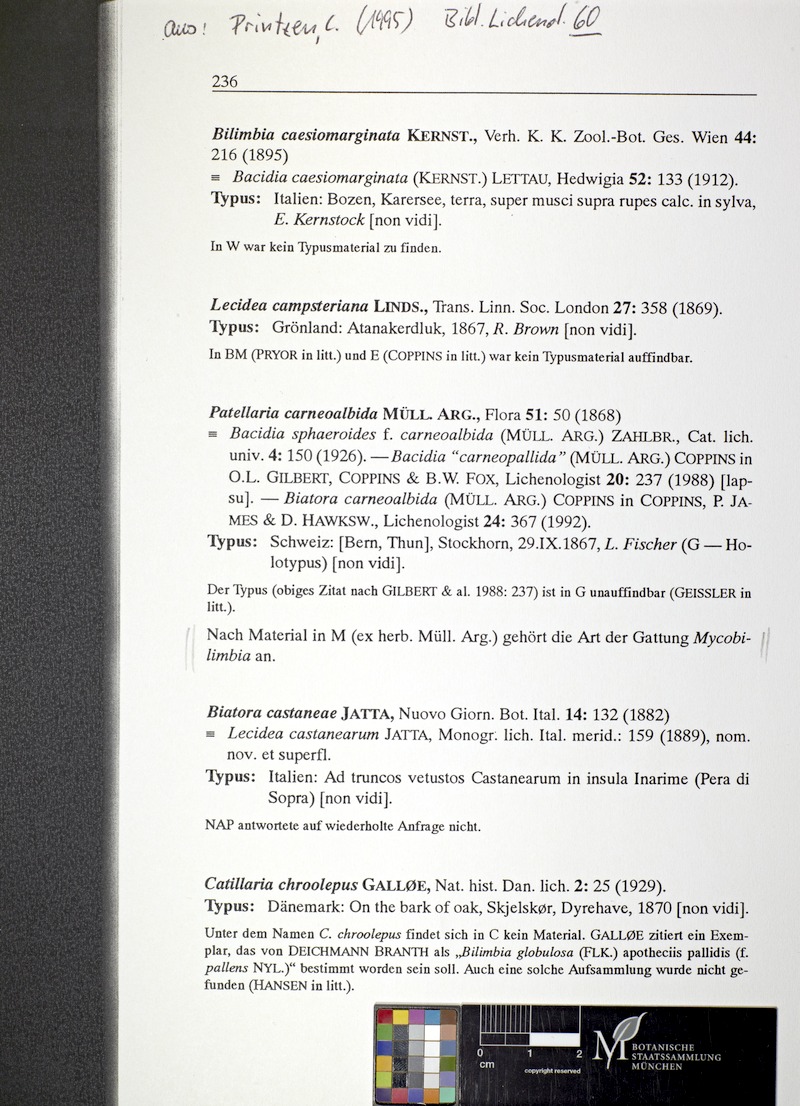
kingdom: Fungi
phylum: Ascomycota
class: Lecanoromycetes
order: Lecanorales
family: Ramalinaceae
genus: Biatora
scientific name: Biatora carneoalbida
